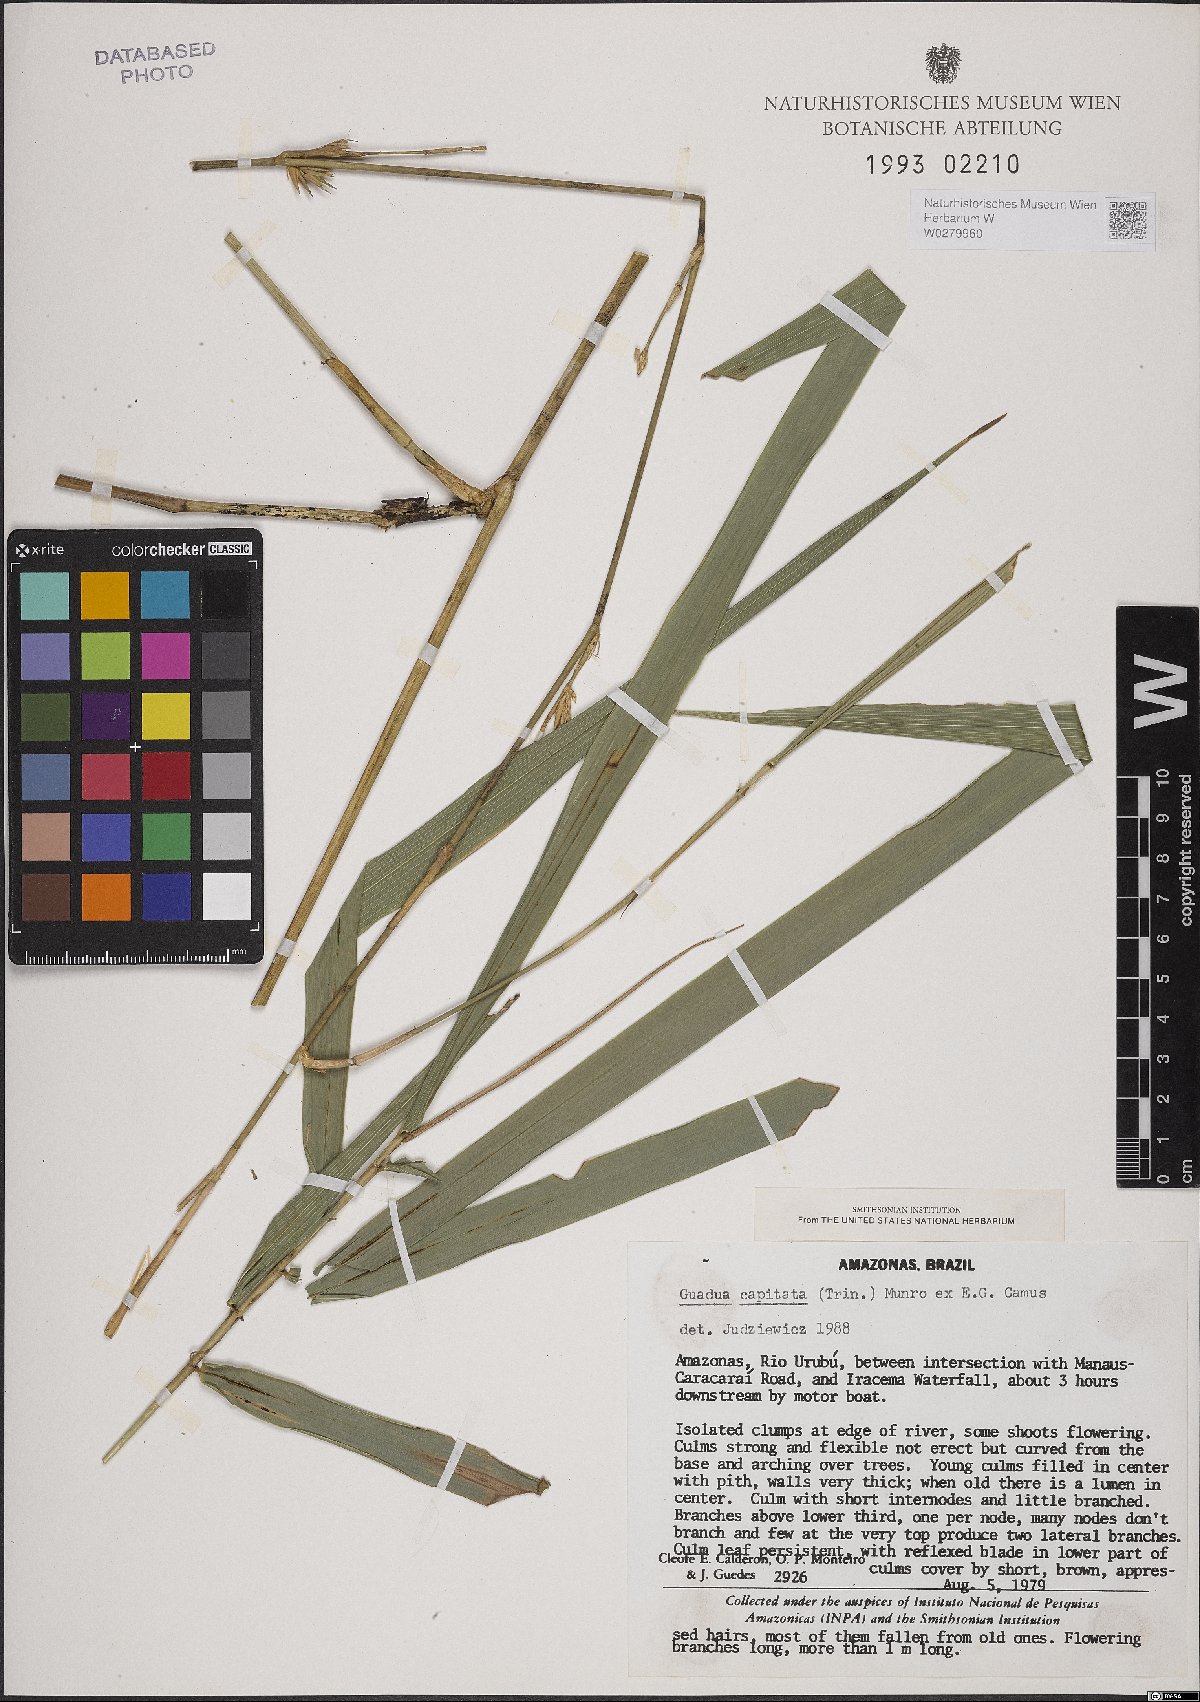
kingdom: Plantae
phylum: Tracheophyta
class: Liliopsida
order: Poales
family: Poaceae
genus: Eremocaulon
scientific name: Eremocaulon capitatum
